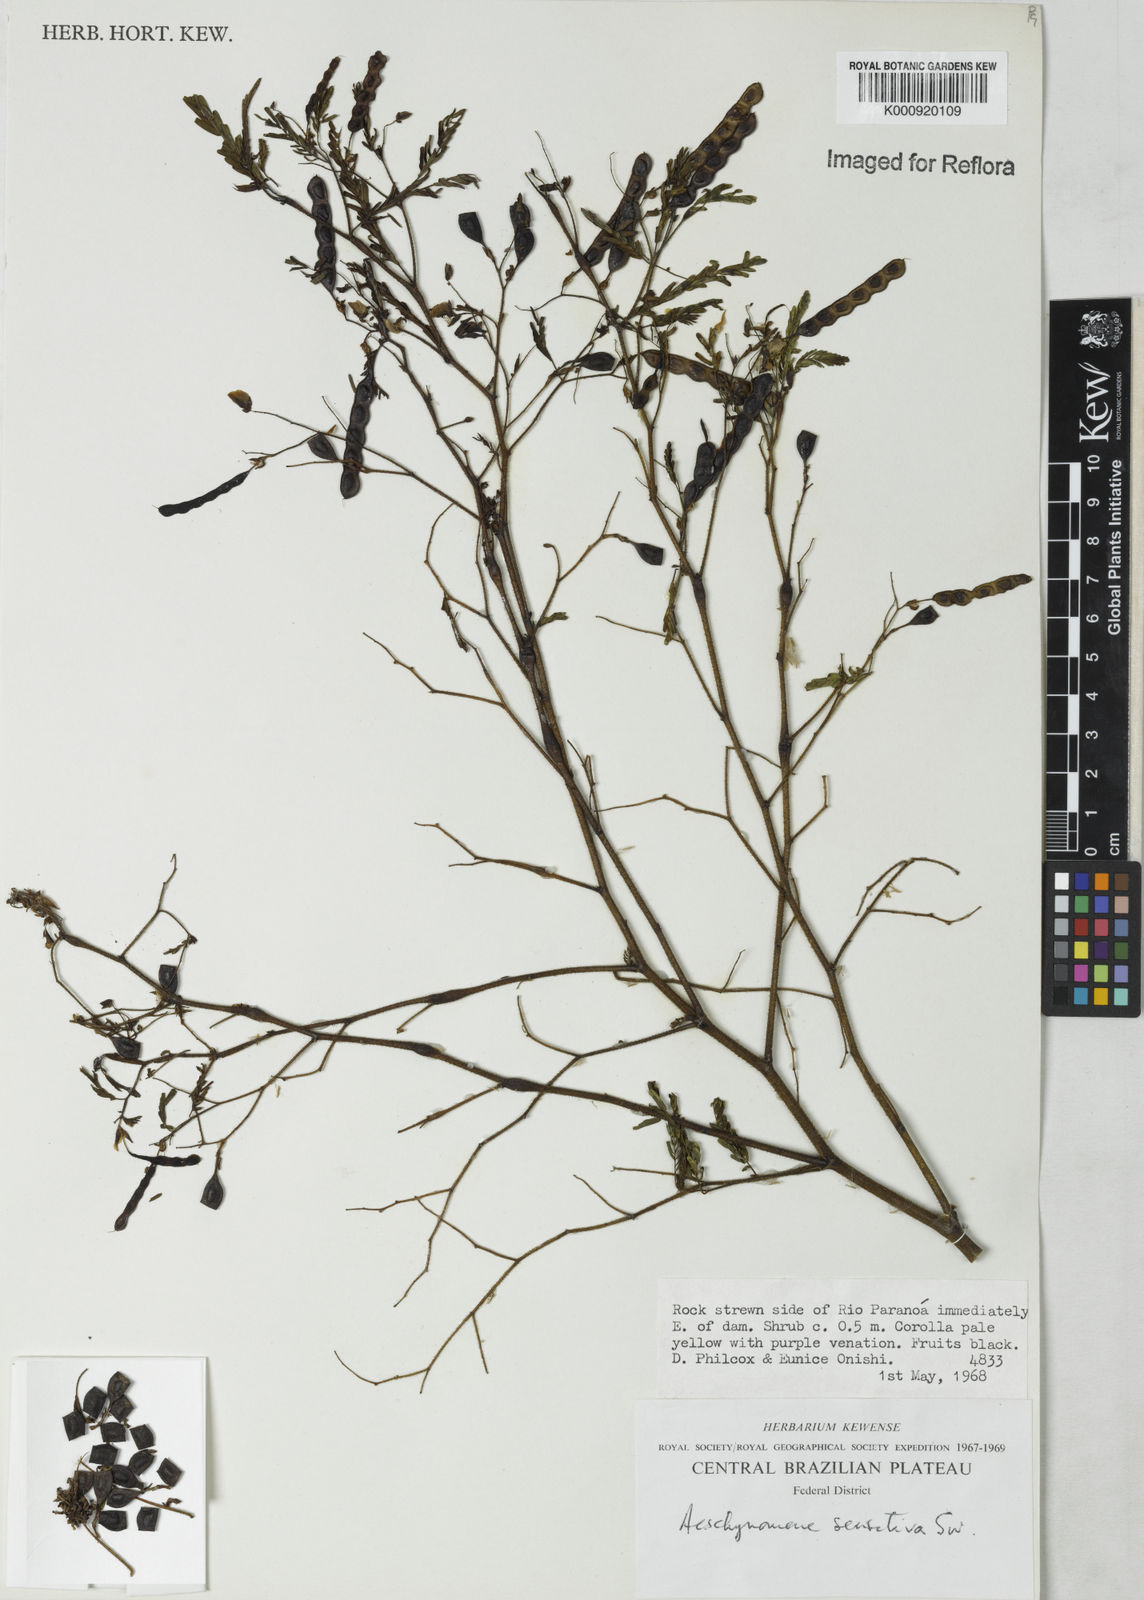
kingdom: Plantae
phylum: Tracheophyta
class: Magnoliopsida
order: Fabales
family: Fabaceae
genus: Aeschynomene
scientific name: Aeschynomene sensitiva
